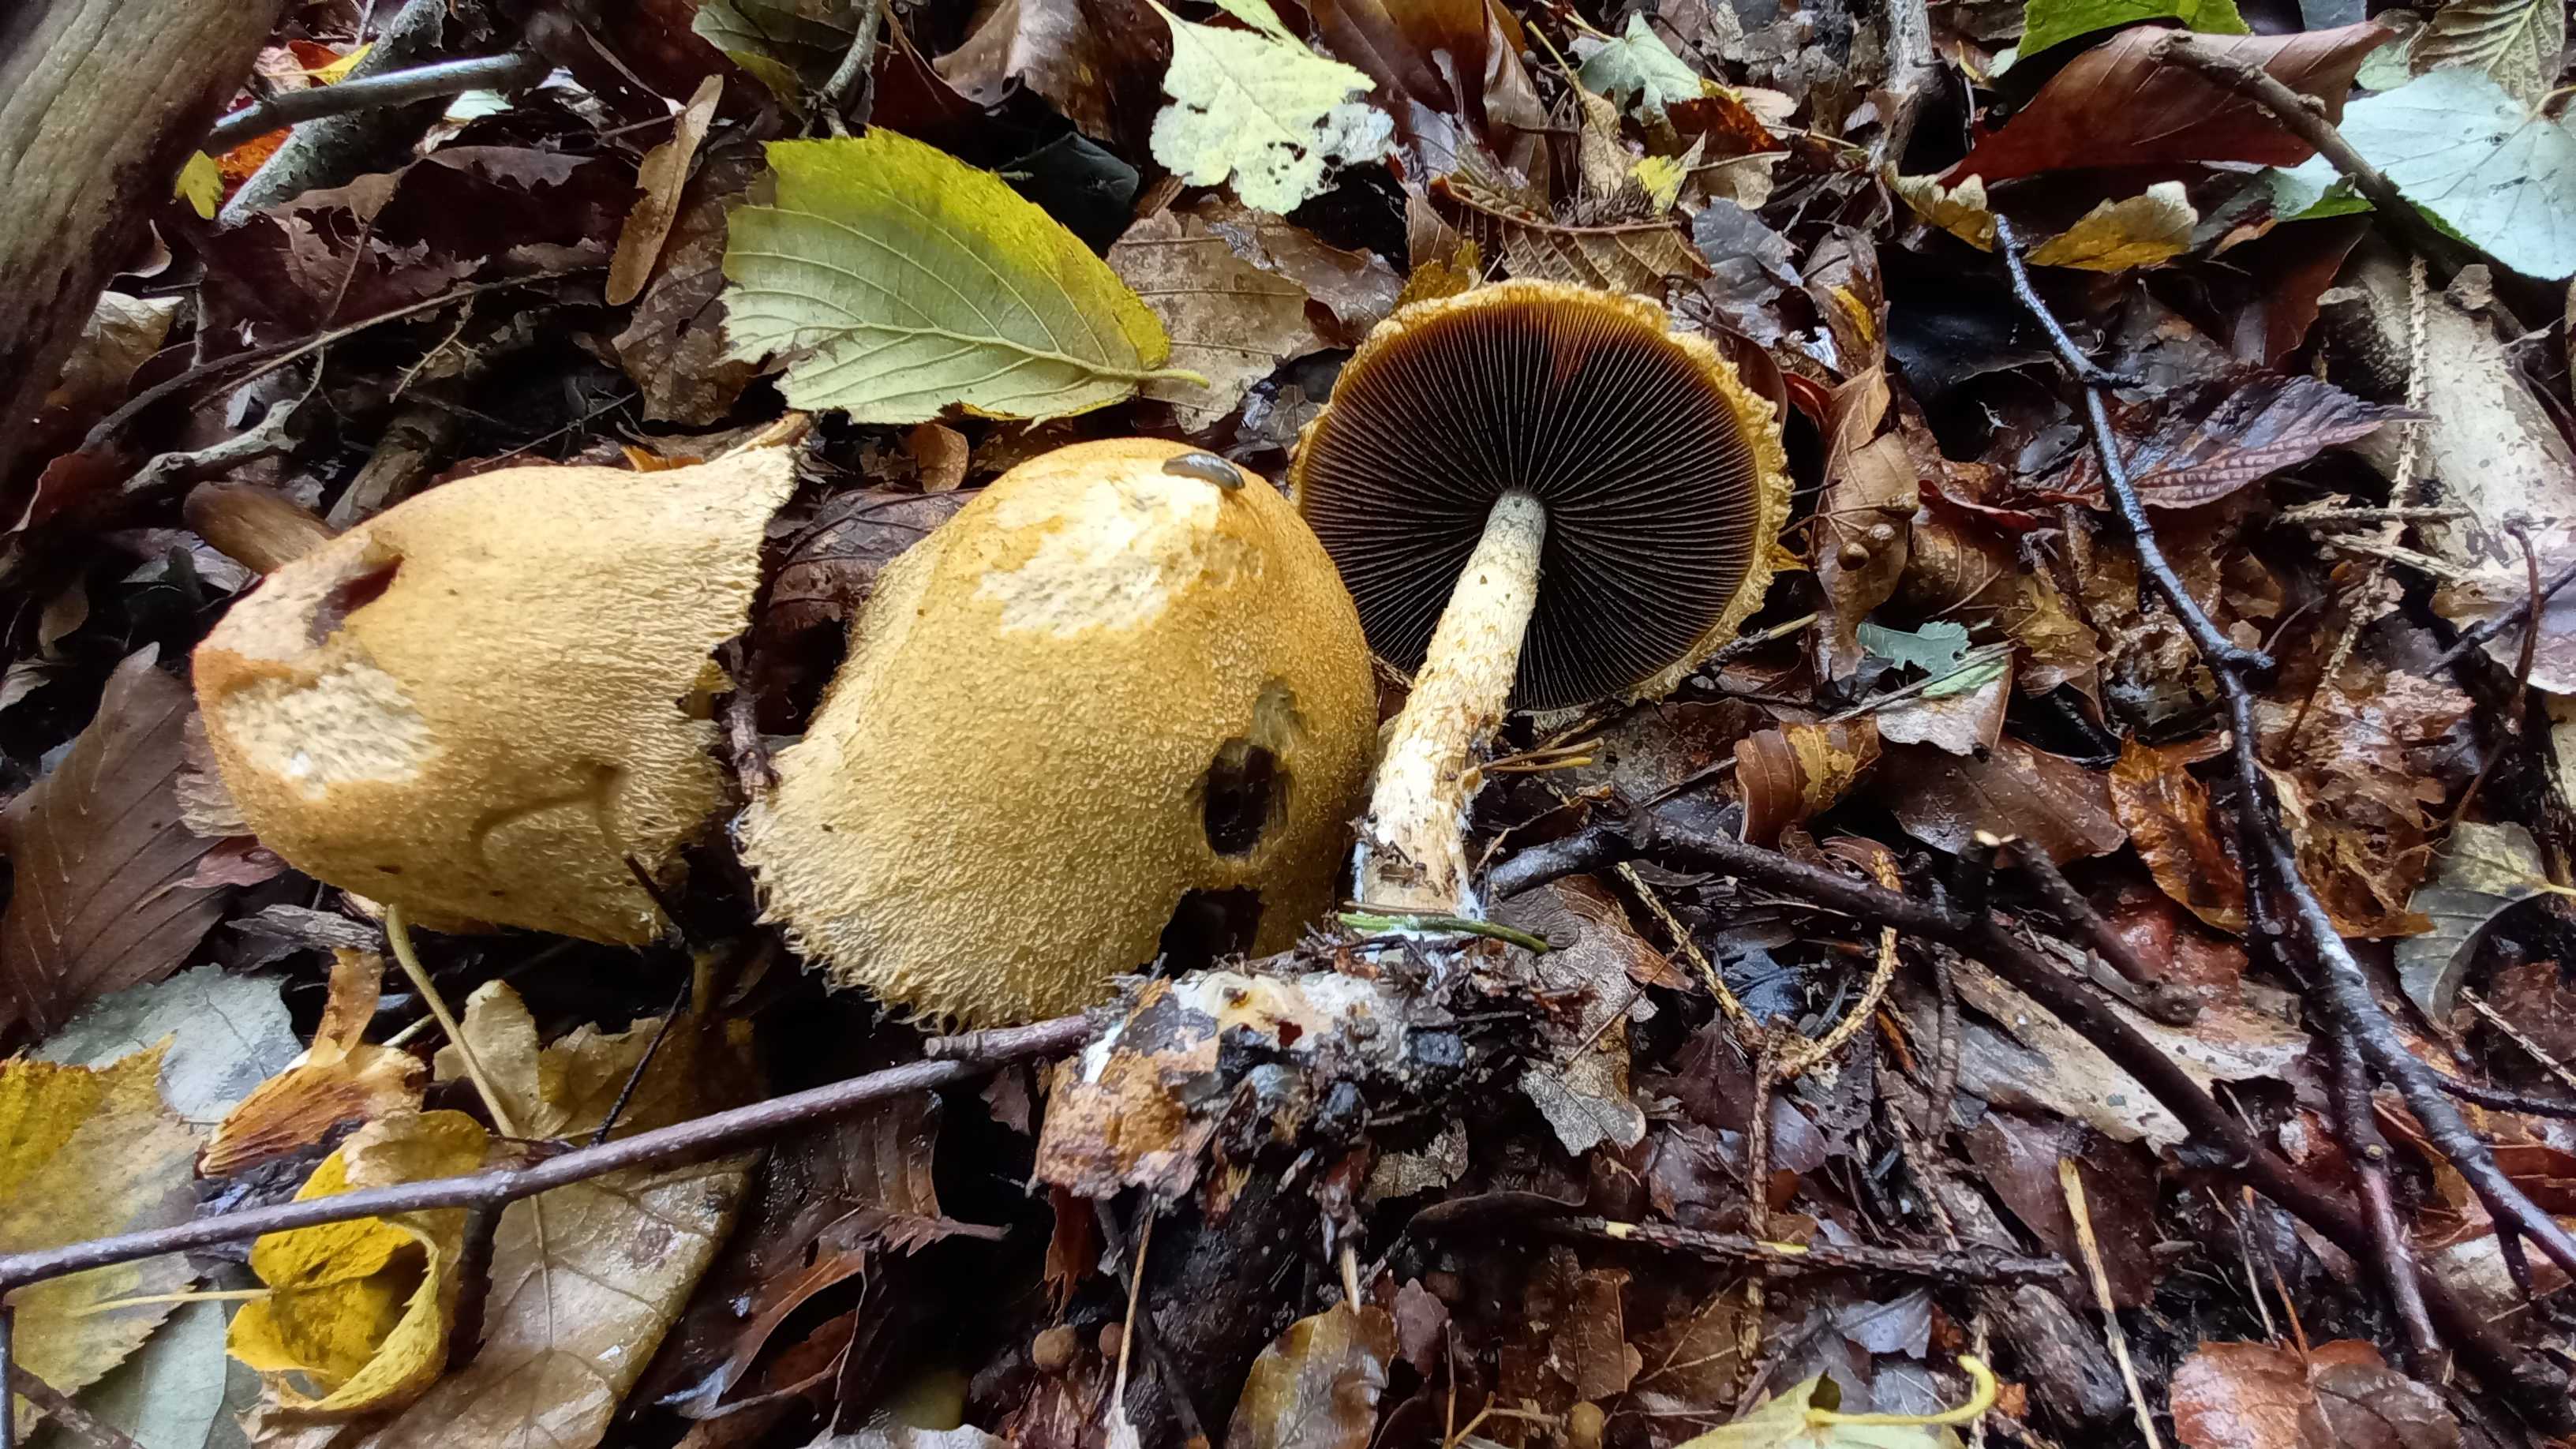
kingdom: Fungi
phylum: Basidiomycota
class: Agaricomycetes
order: Agaricales
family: Psathyrellaceae
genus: Lacrymaria
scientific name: Lacrymaria lacrymabunda
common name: grædende mørkhat
